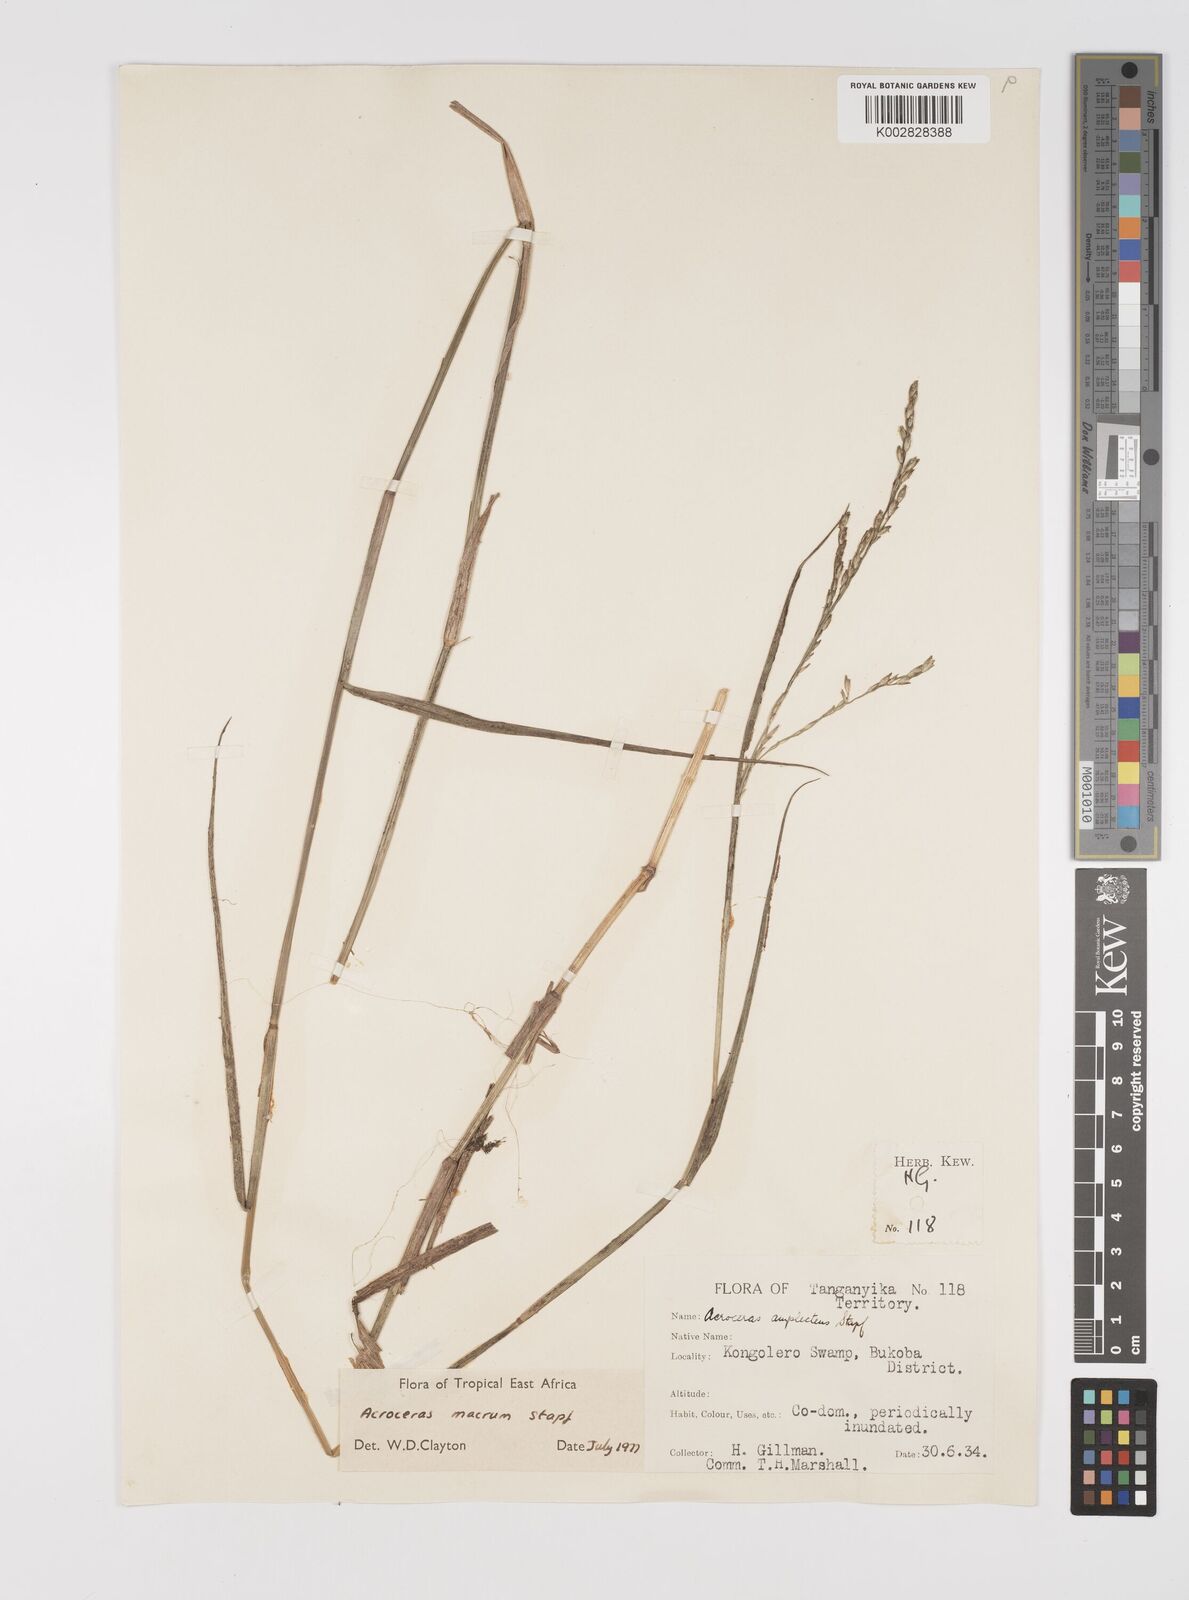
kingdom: Plantae
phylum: Tracheophyta
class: Liliopsida
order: Poales
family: Poaceae
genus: Acroceras
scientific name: Acroceras macrum
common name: Nyl grass
